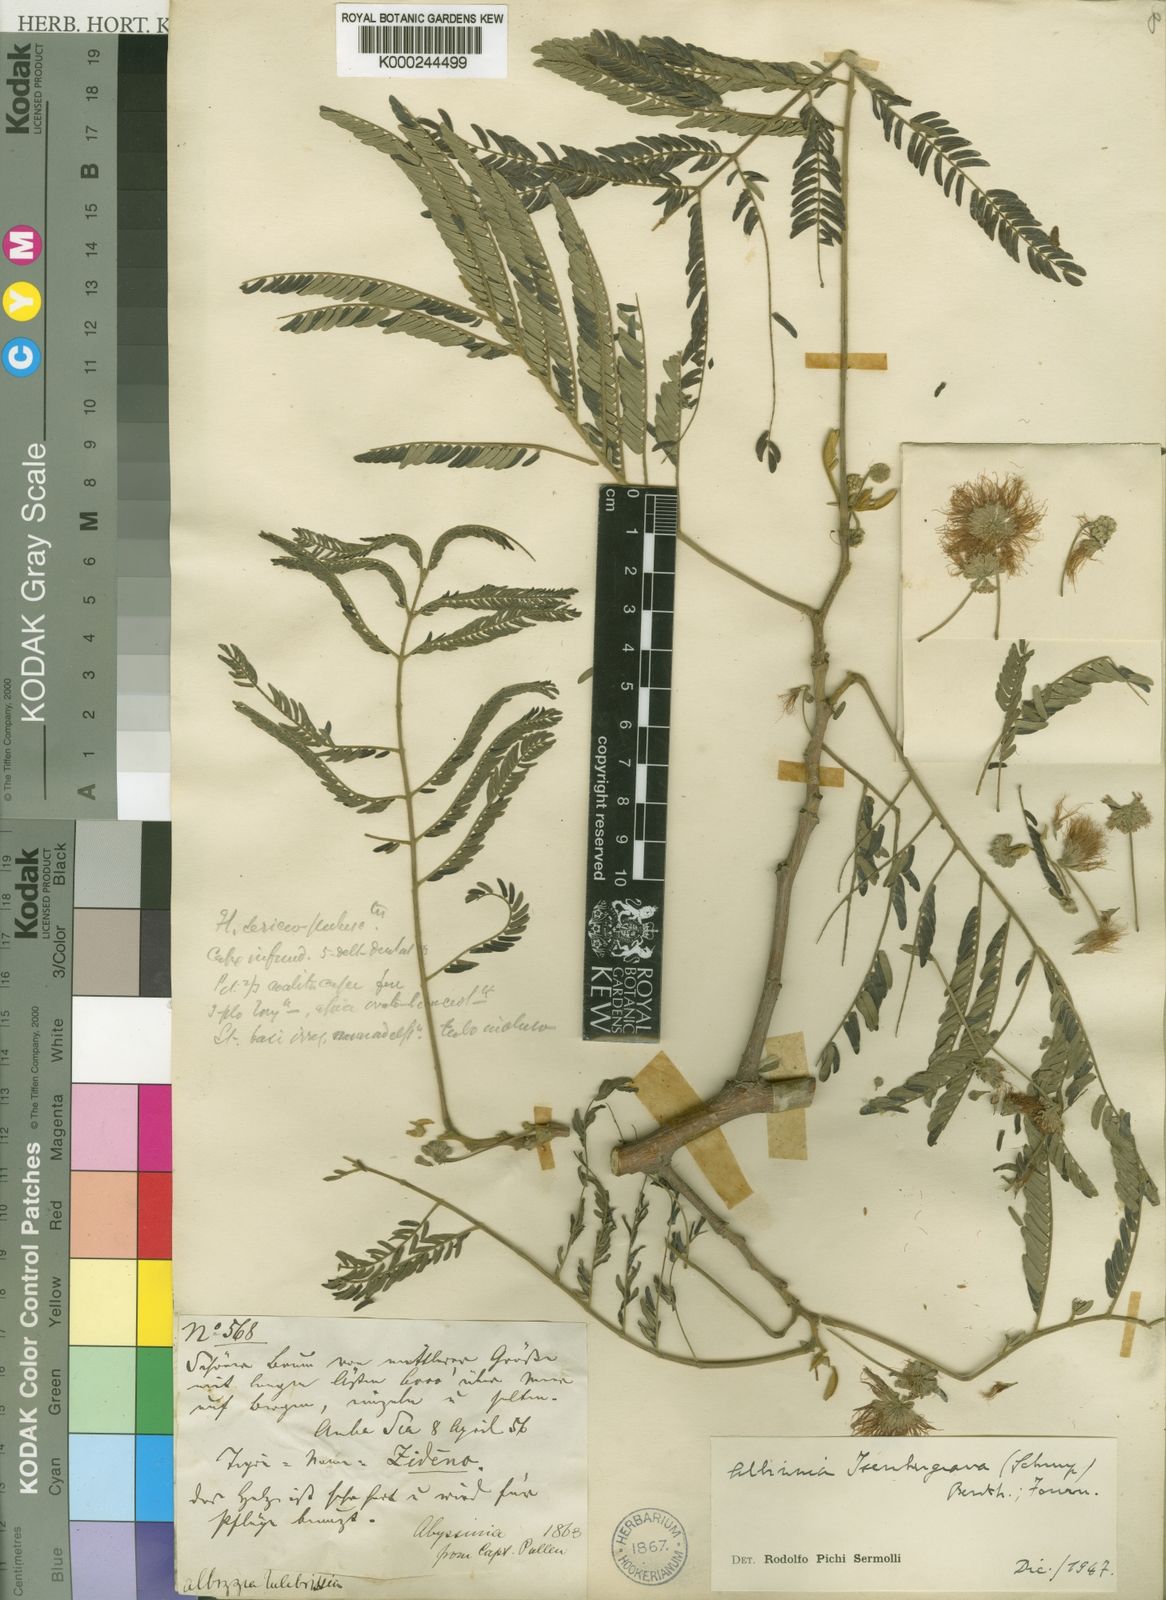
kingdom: Plantae
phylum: Tracheophyta
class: Magnoliopsida
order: Fabales
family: Fabaceae
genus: Albizia
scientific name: Albizia isenbergiana
